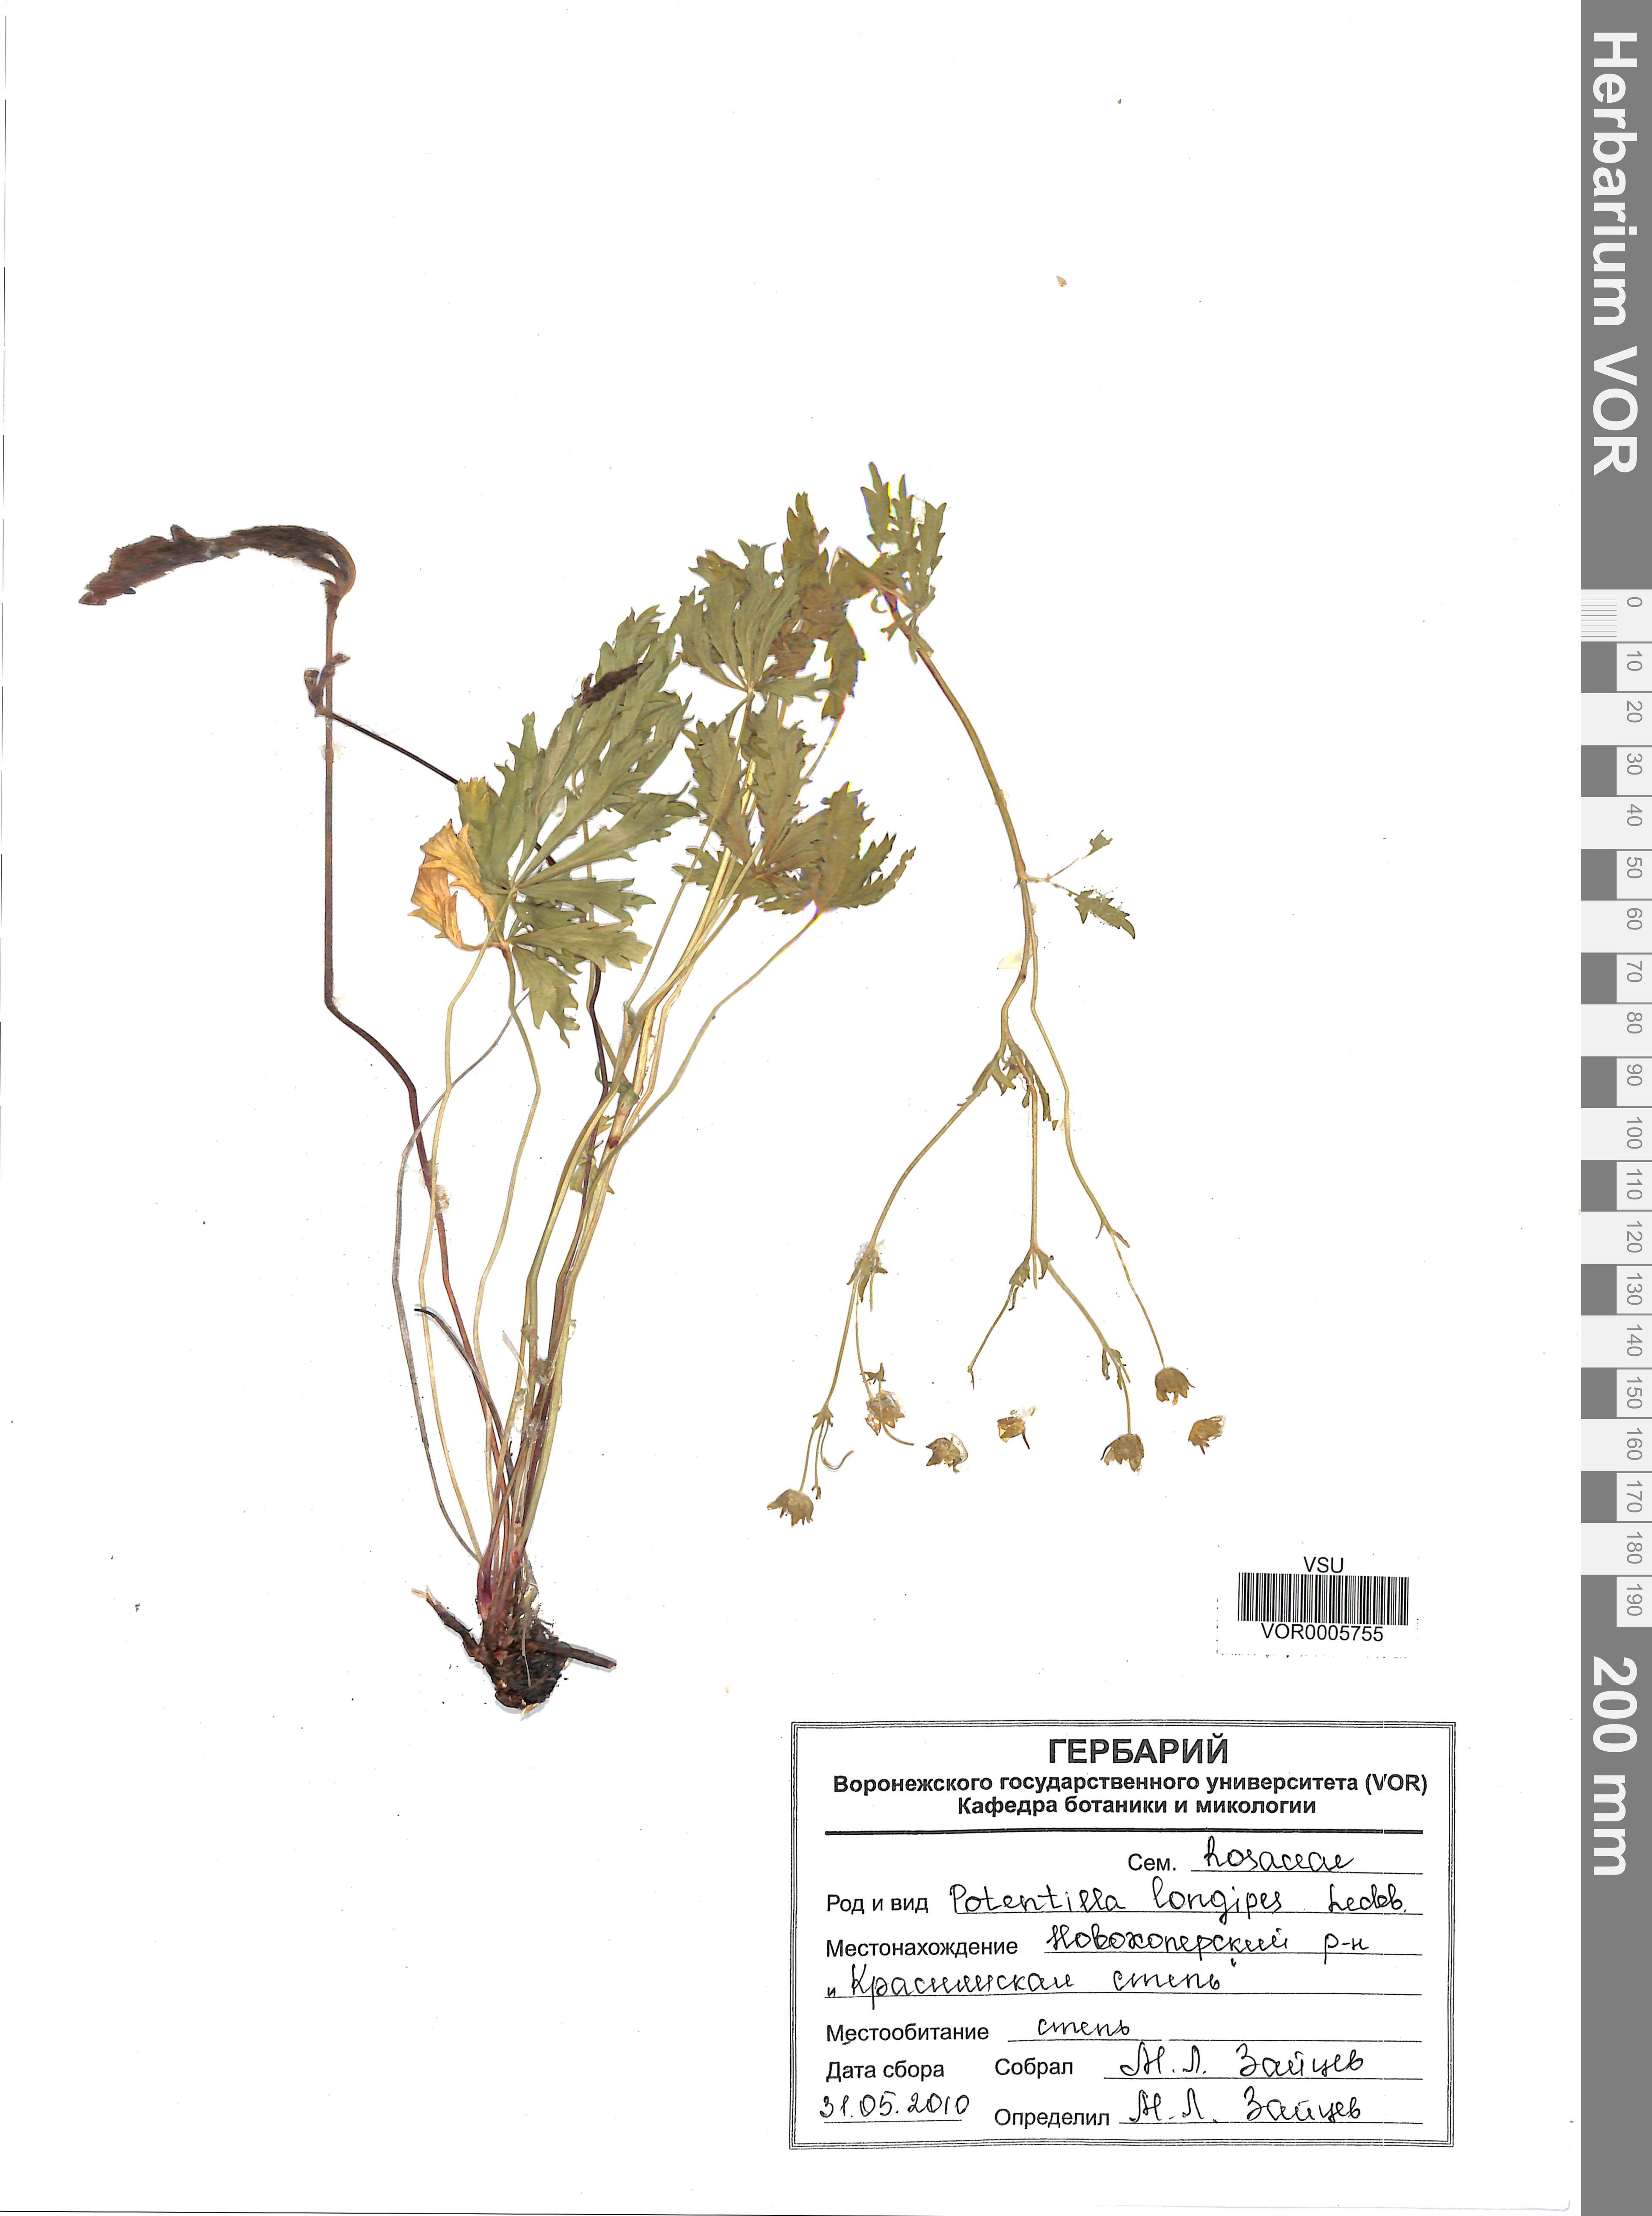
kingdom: Plantae
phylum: Tracheophyta
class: Magnoliopsida
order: Rosales
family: Rosaceae
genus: Potentilla
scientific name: Potentilla longipes
